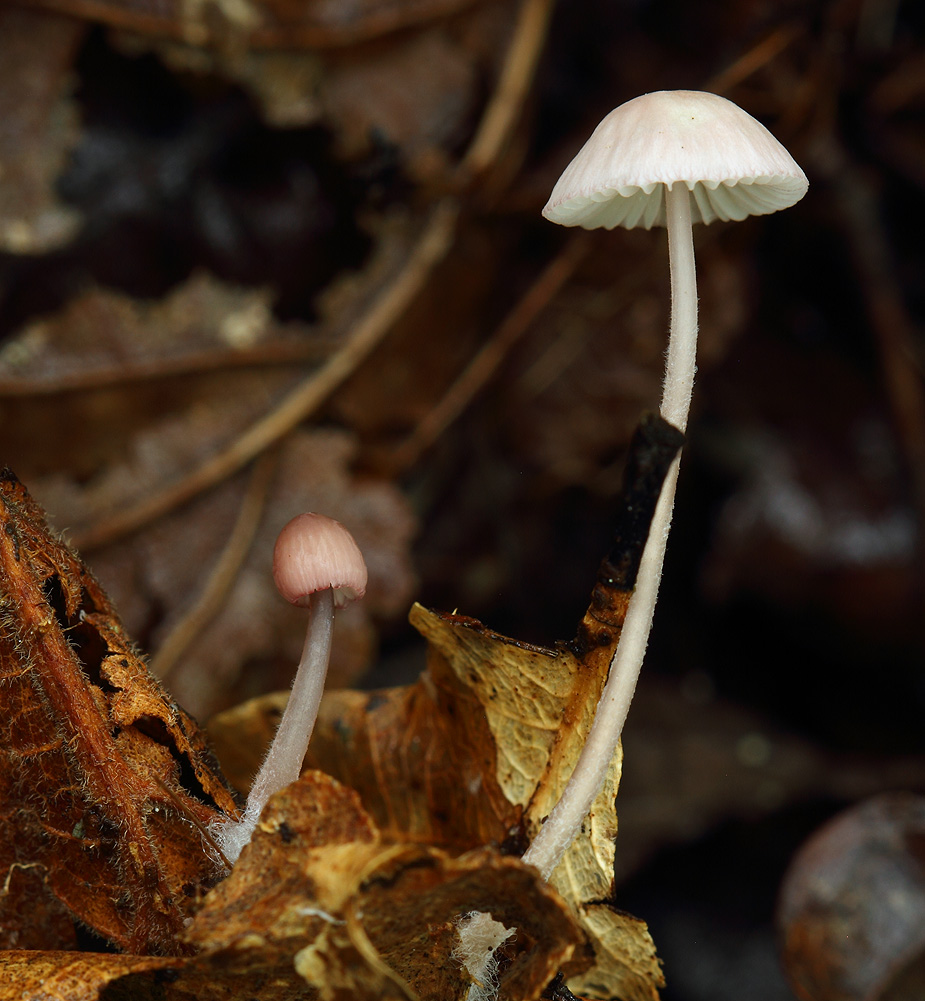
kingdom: Fungi
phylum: Basidiomycota
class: Agaricomycetes
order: Agaricales
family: Mycenaceae
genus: Mycena
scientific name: Mycena albidolilacea
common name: lyslilla huesvamp
